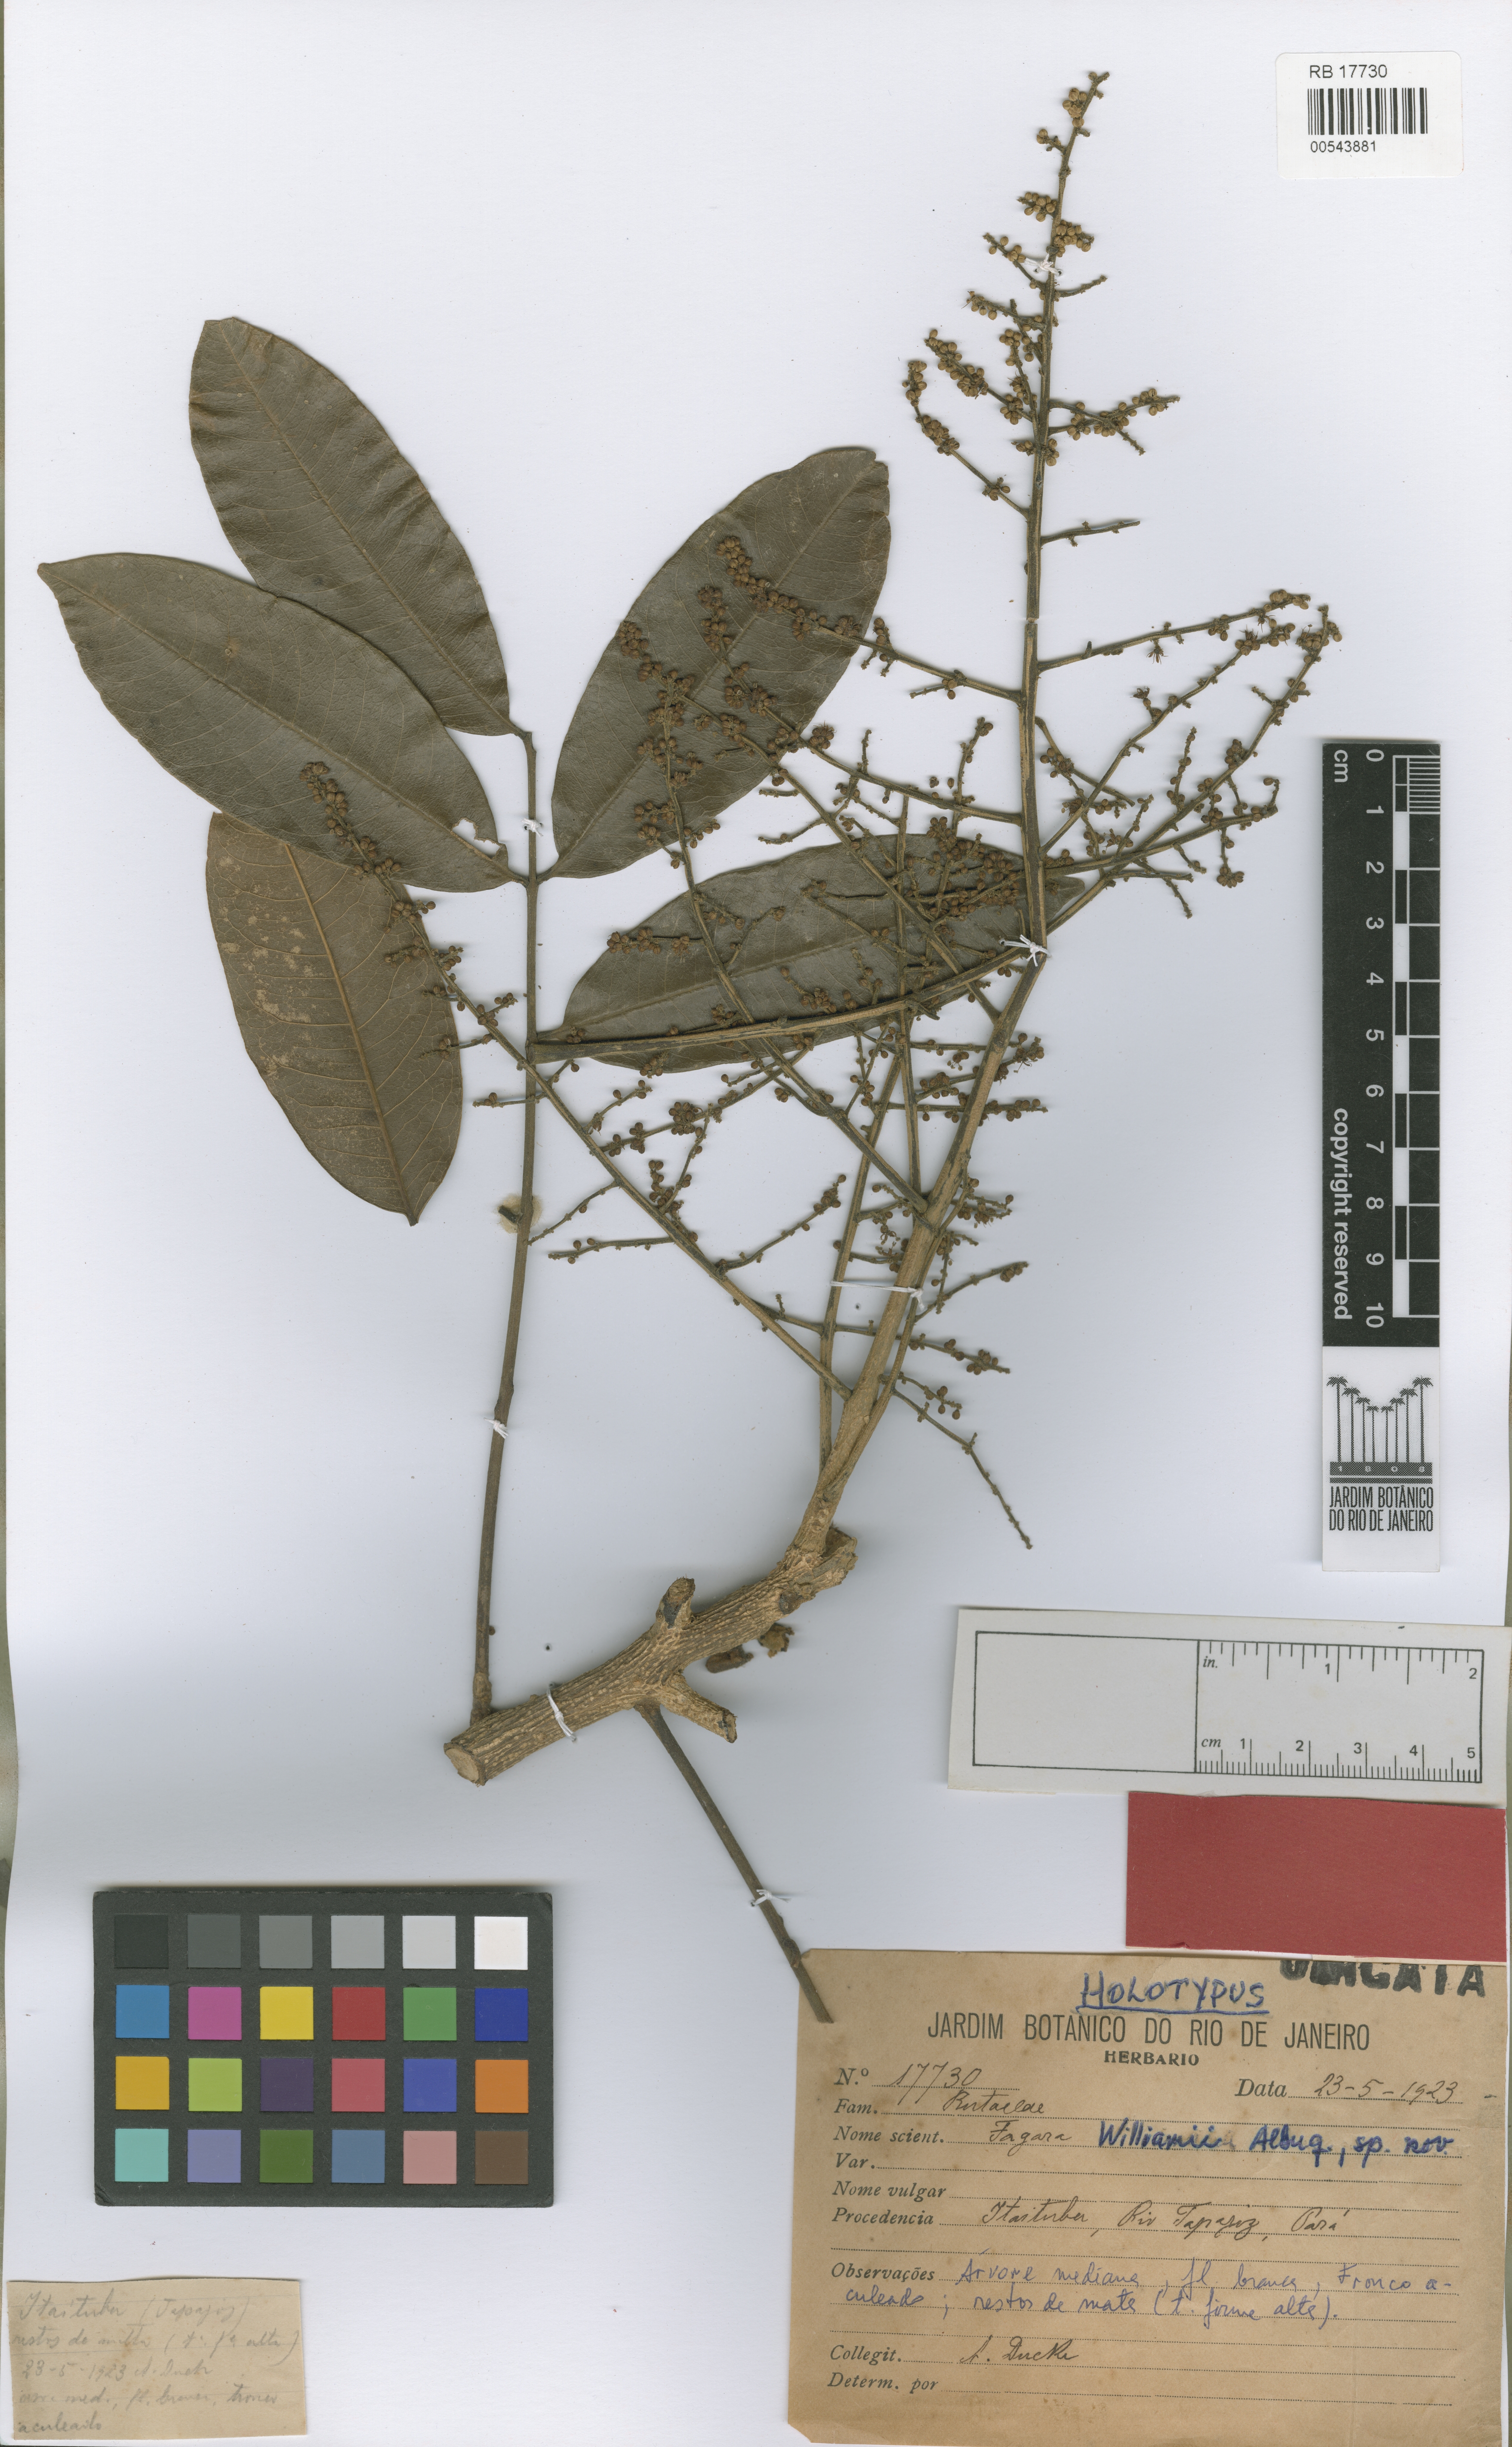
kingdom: Plantae
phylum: Tracheophyta
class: Magnoliopsida
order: Sapindales
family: Rutaceae
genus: Zanthoxylum
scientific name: Zanthoxylum riedelianum
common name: White copal
